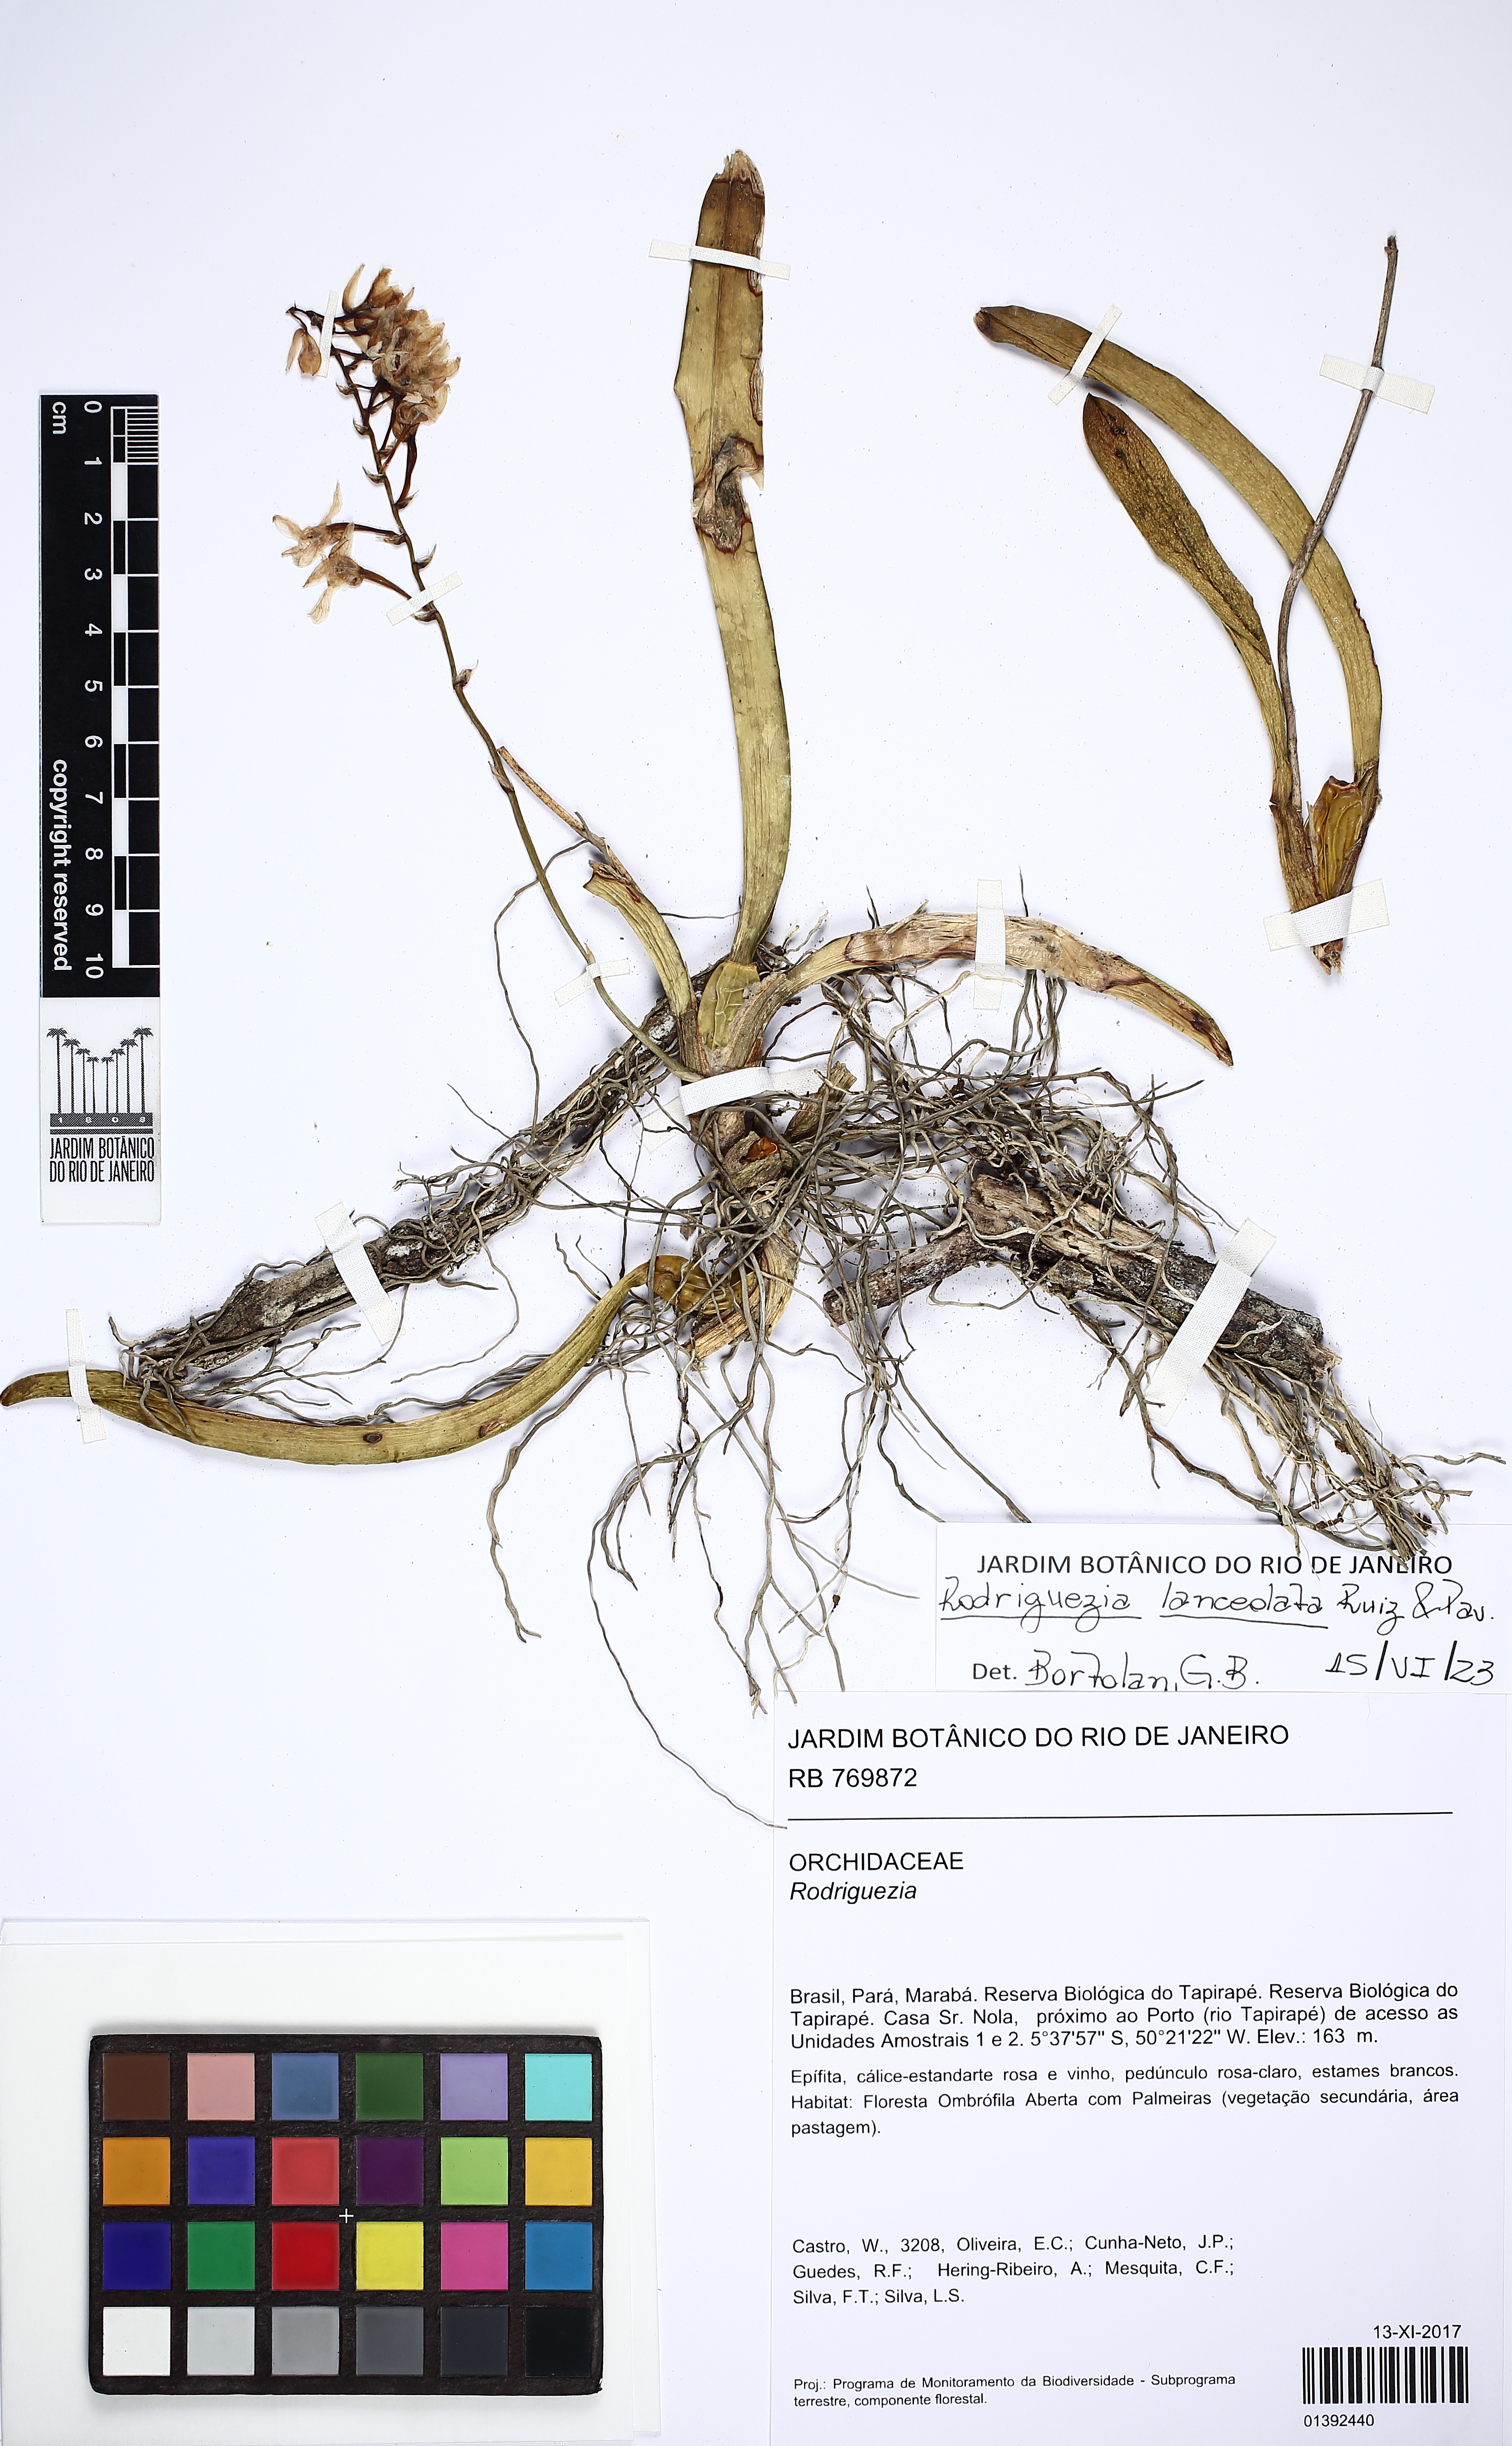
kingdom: Plantae
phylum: Tracheophyta
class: Liliopsida
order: Asparagales
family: Orchidaceae
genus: Rodriguezia
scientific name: Rodriguezia lanceolata
